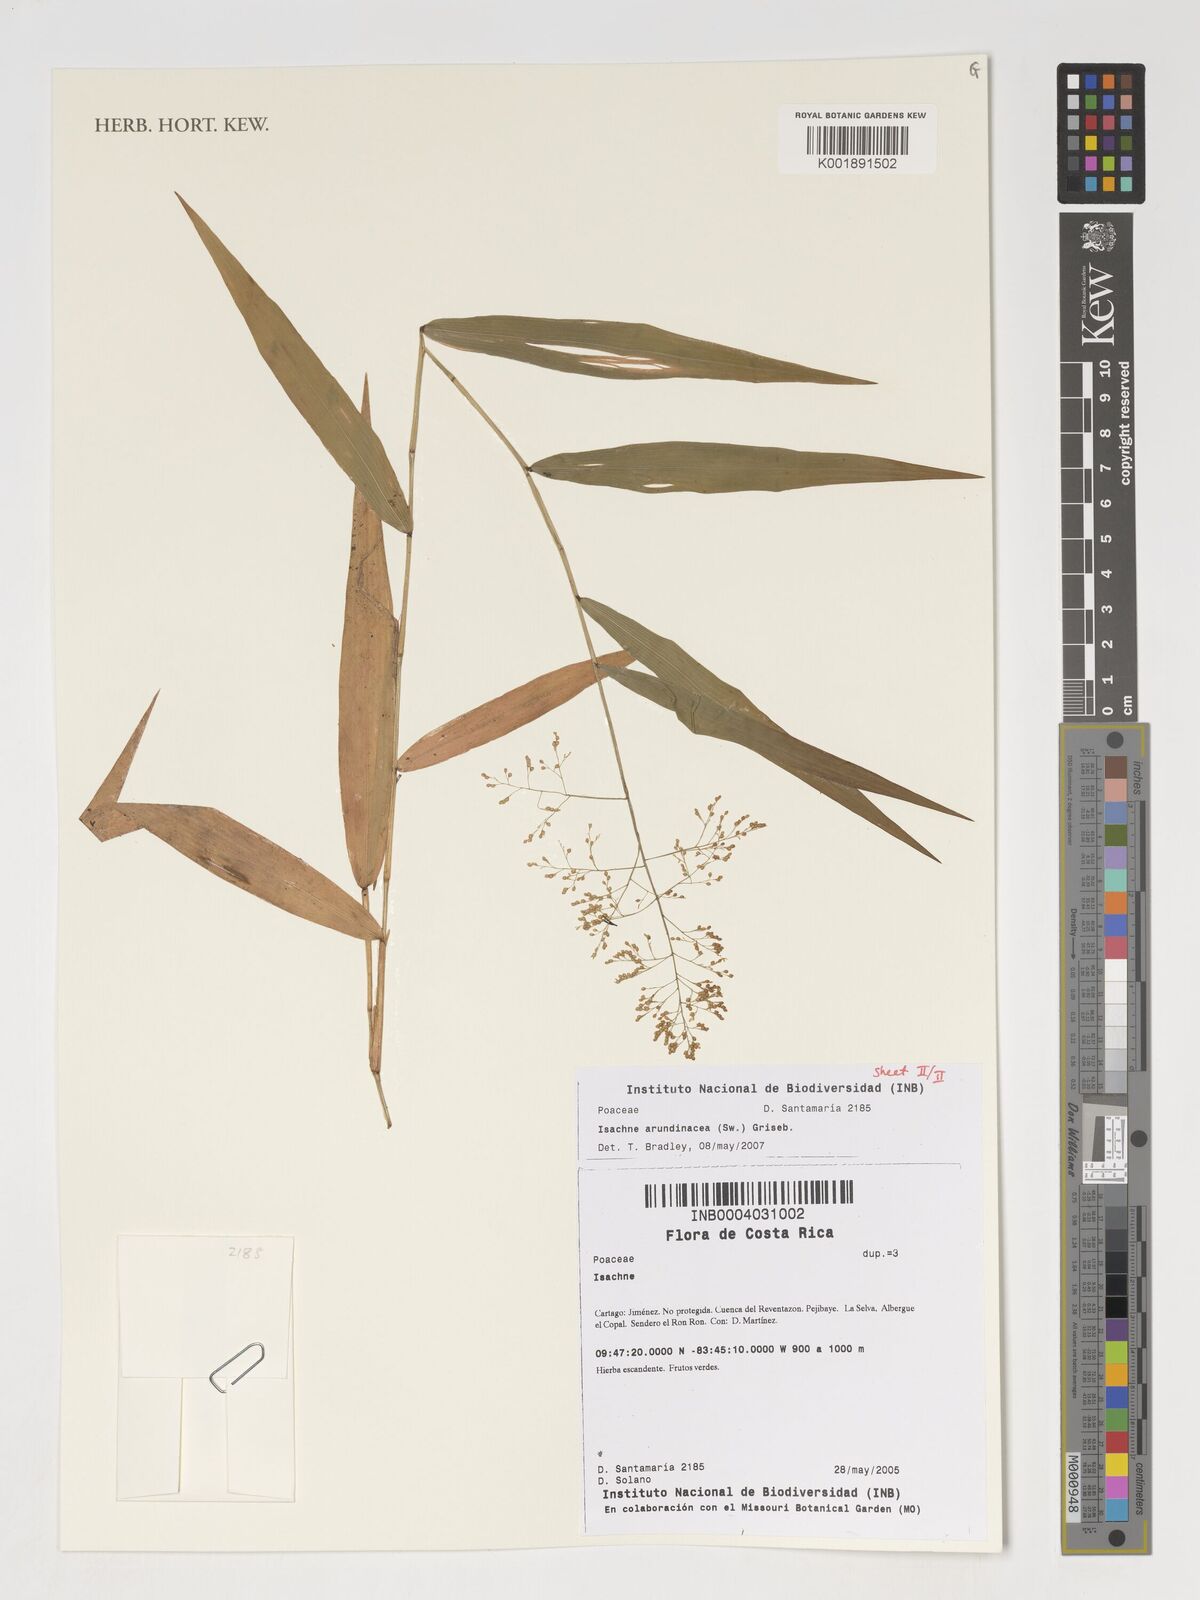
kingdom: Plantae
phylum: Tracheophyta
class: Liliopsida
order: Poales
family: Poaceae
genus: Isachne
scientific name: Isachne arundinacea
